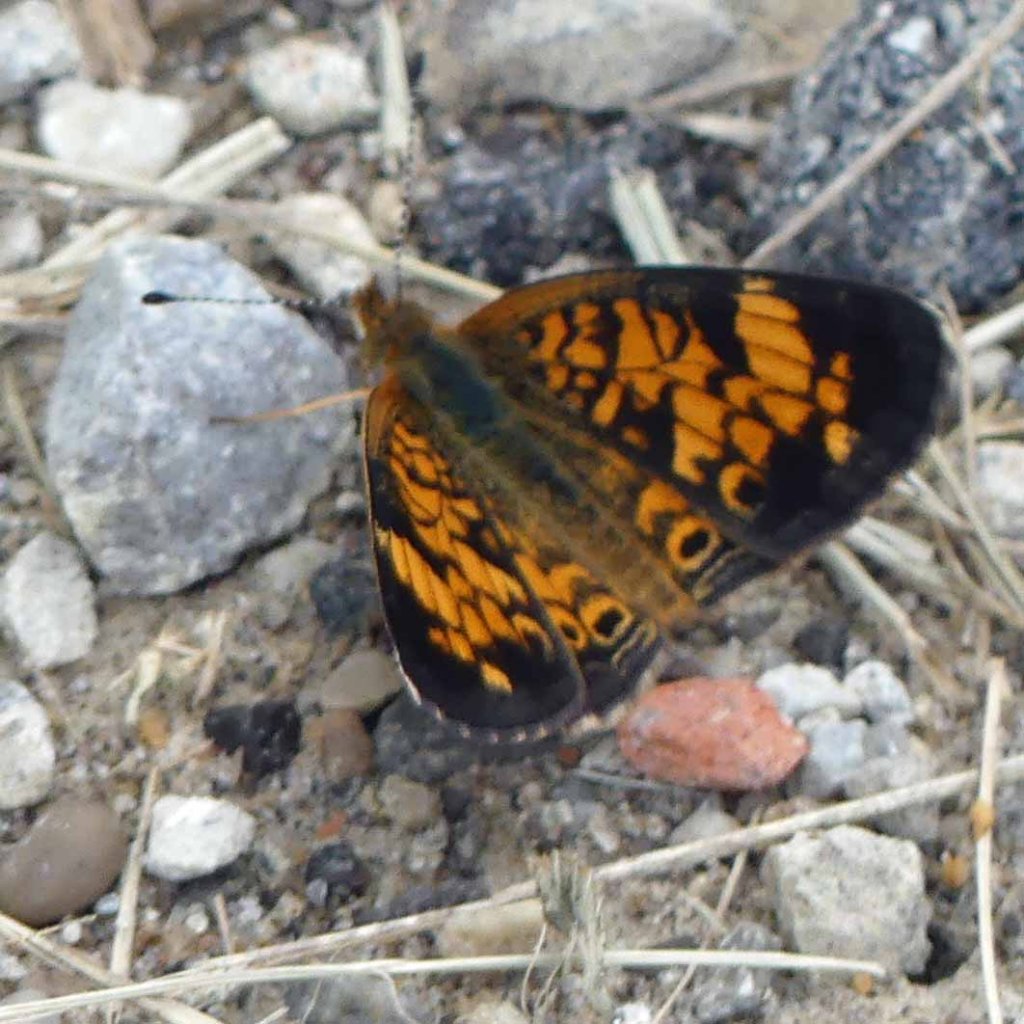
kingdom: Animalia
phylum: Arthropoda
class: Insecta
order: Lepidoptera
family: Nymphalidae
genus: Phyciodes
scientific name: Phyciodes tharos
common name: Pearl Crescent
